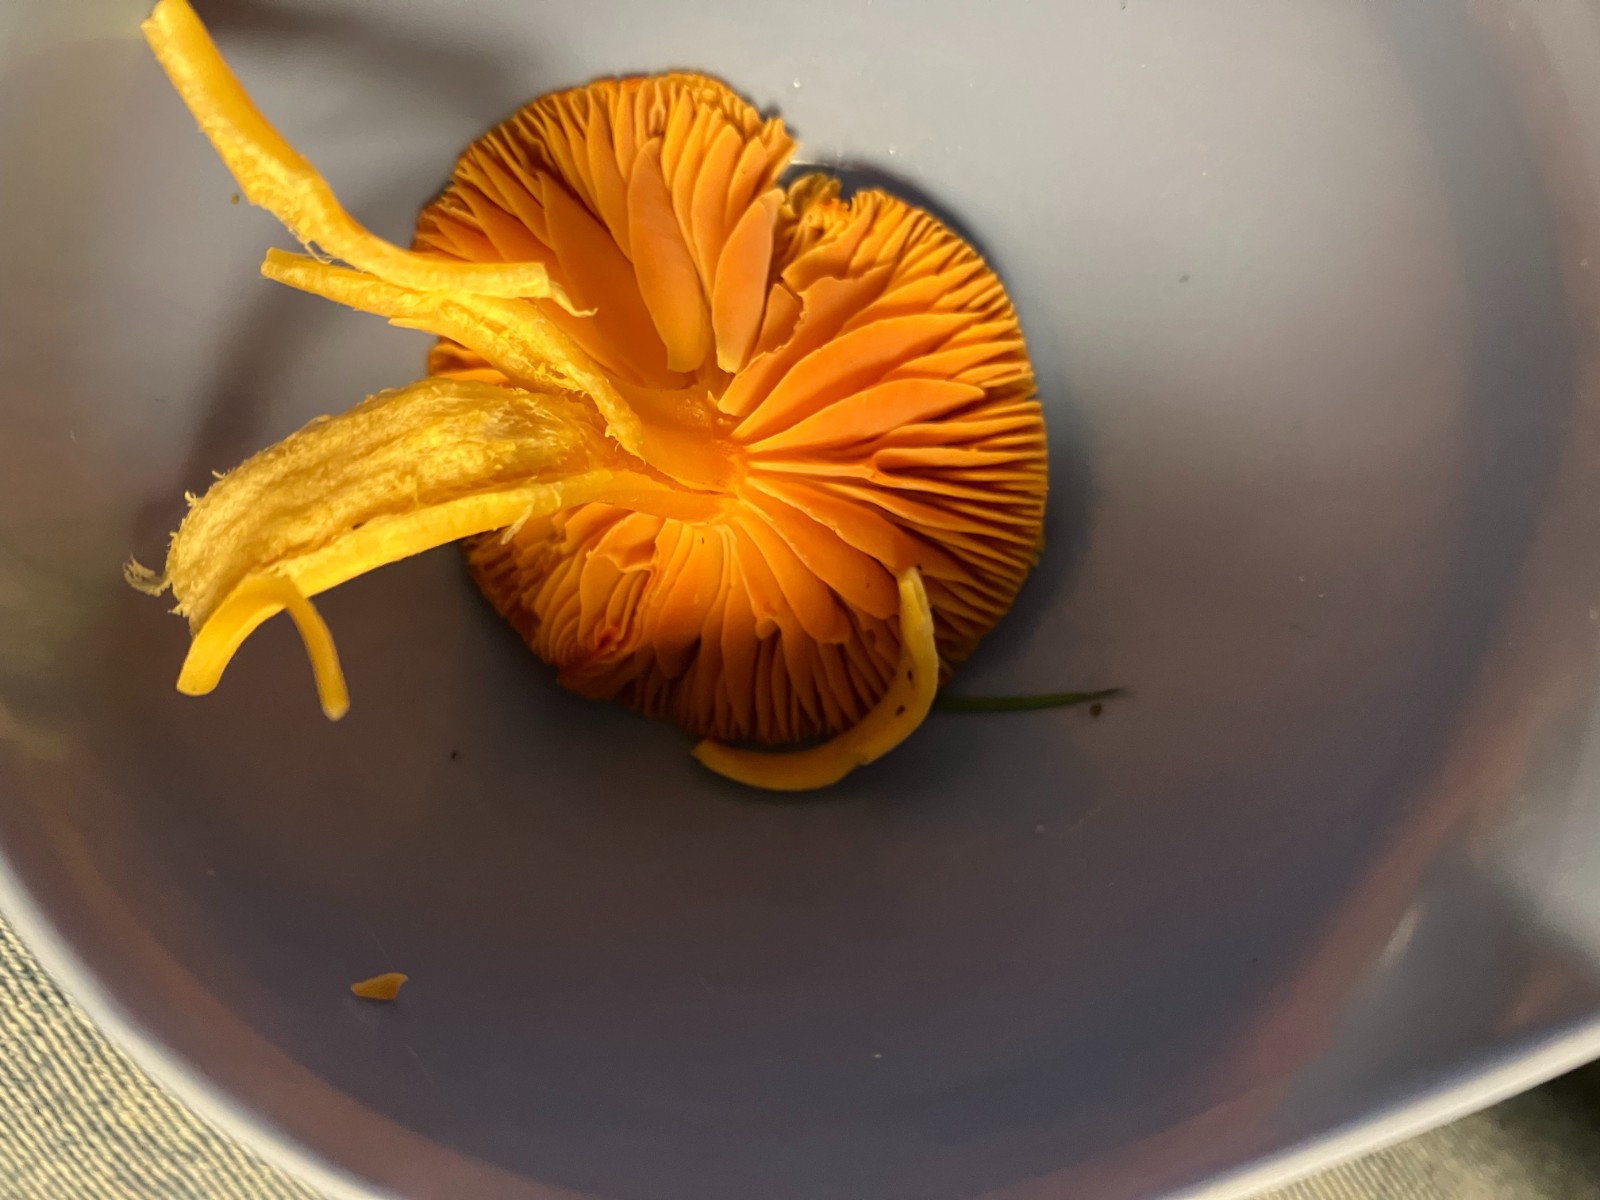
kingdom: Fungi
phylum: Basidiomycota
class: Agaricomycetes
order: Agaricales
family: Hygrophoraceae
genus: Hygrocybe
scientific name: Hygrocybe reidii
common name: honning-vokshat
